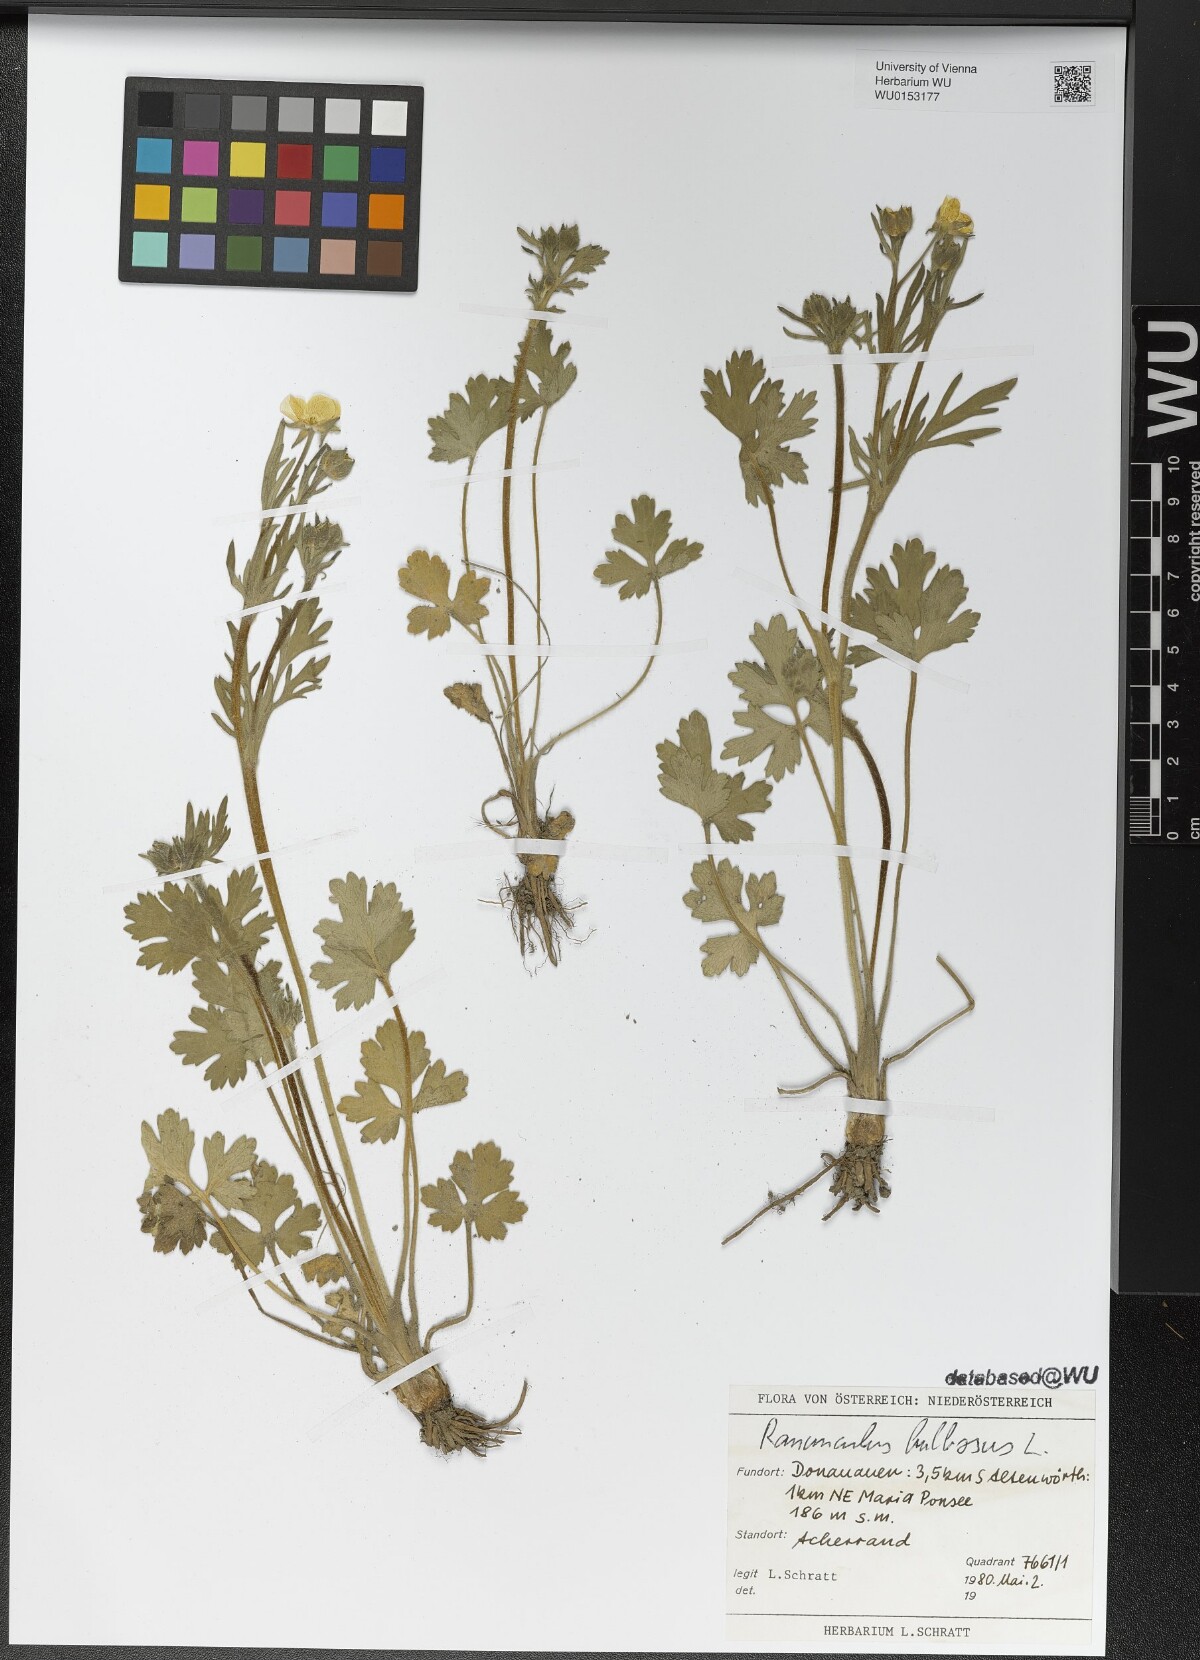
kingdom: Plantae
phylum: Tracheophyta
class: Magnoliopsida
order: Ranunculales
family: Ranunculaceae
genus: Ranunculus
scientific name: Ranunculus bulbosus
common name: Bulbous buttercup
